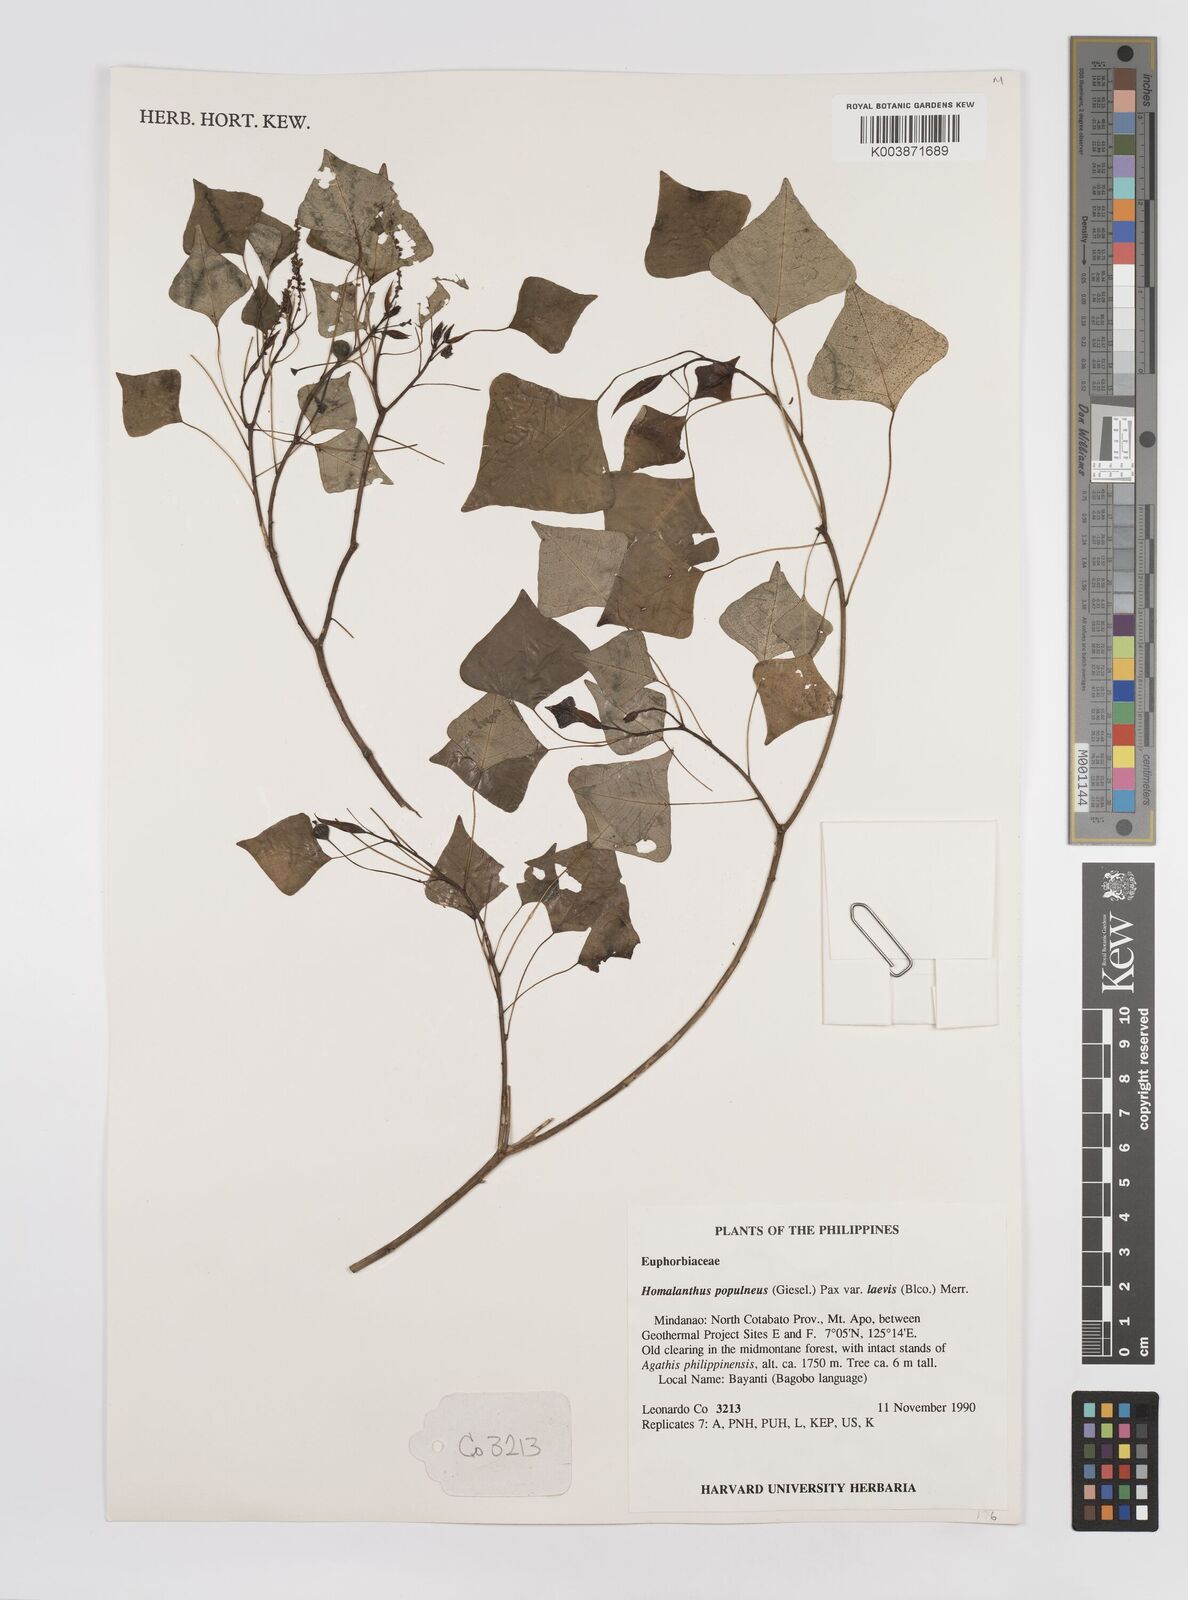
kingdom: Plantae
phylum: Tracheophyta
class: Magnoliopsida
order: Malpighiales
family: Euphorbiaceae
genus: Homalanthus
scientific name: Homalanthus populneus
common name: Spurge
